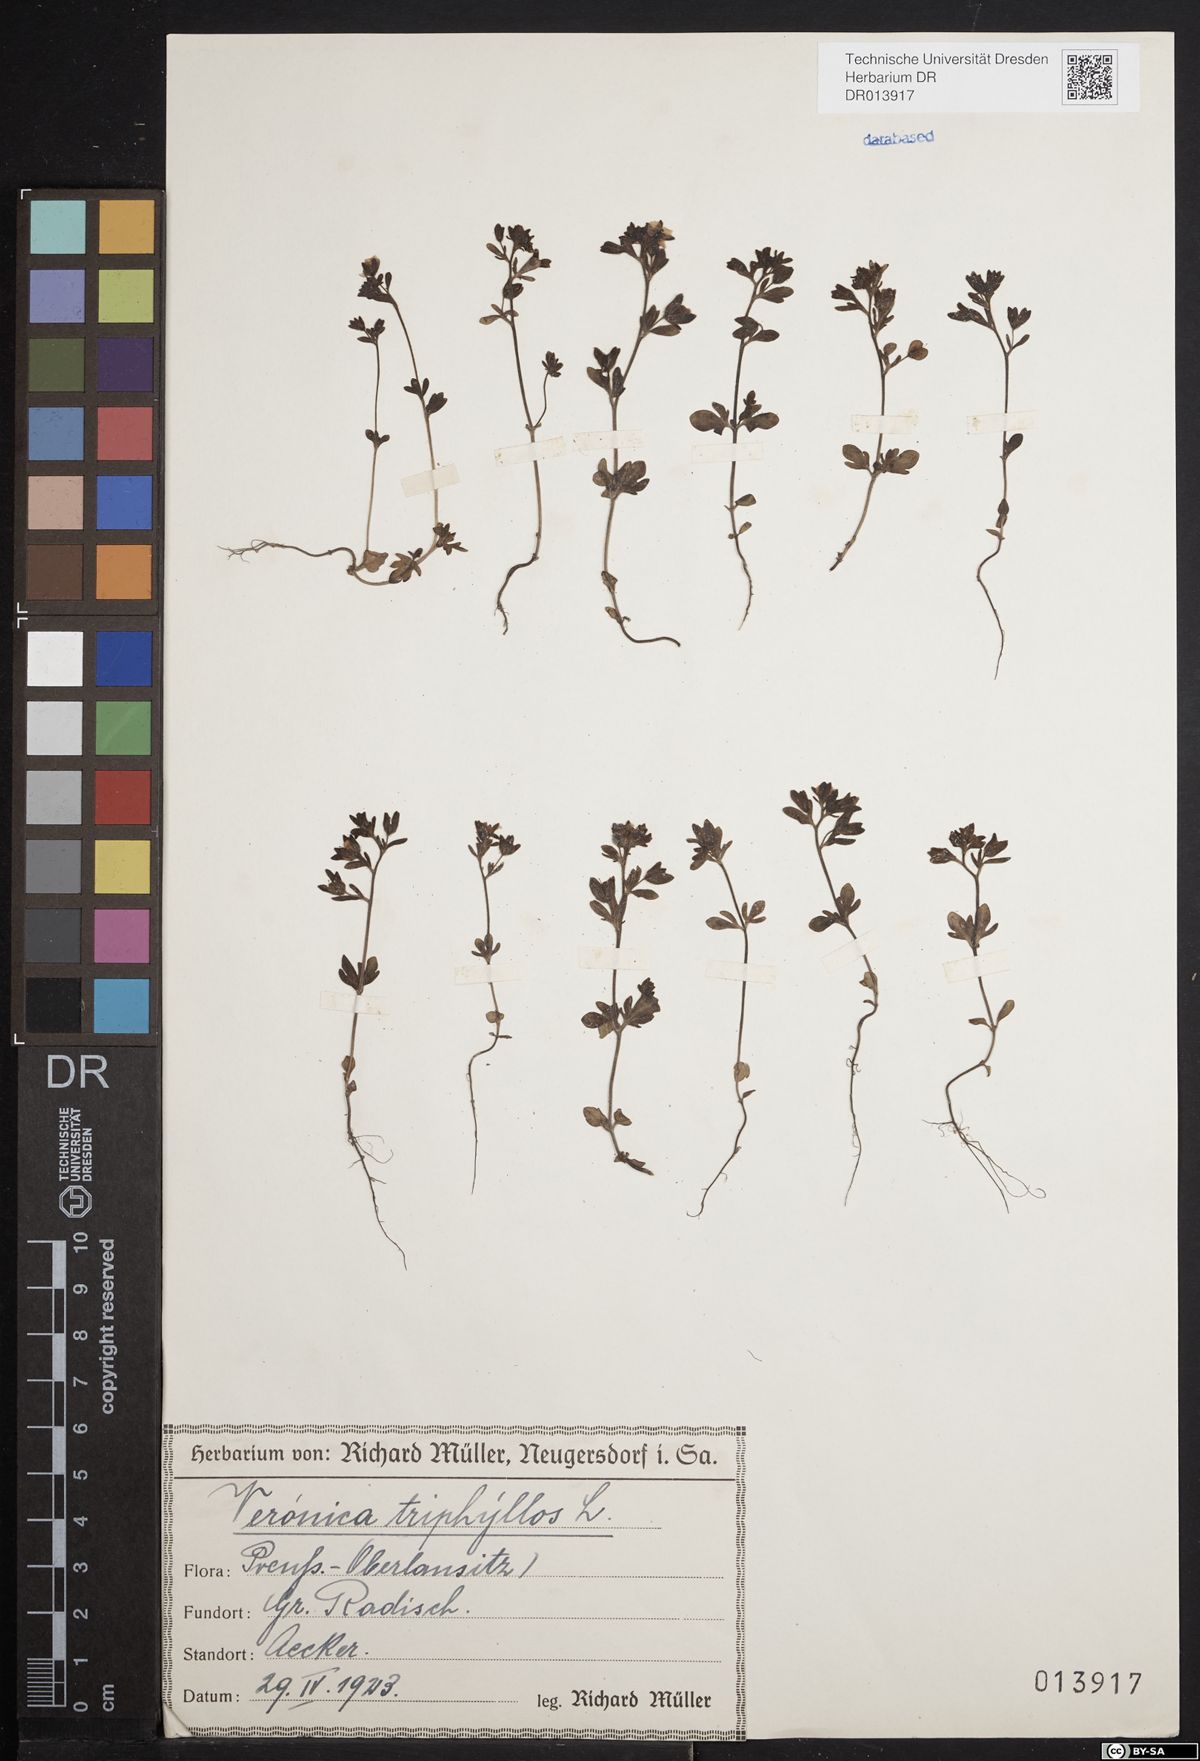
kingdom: Plantae
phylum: Tracheophyta
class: Magnoliopsida
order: Lamiales
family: Plantaginaceae
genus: Veronica
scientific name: Veronica triphyllos
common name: Fingered speedwell
